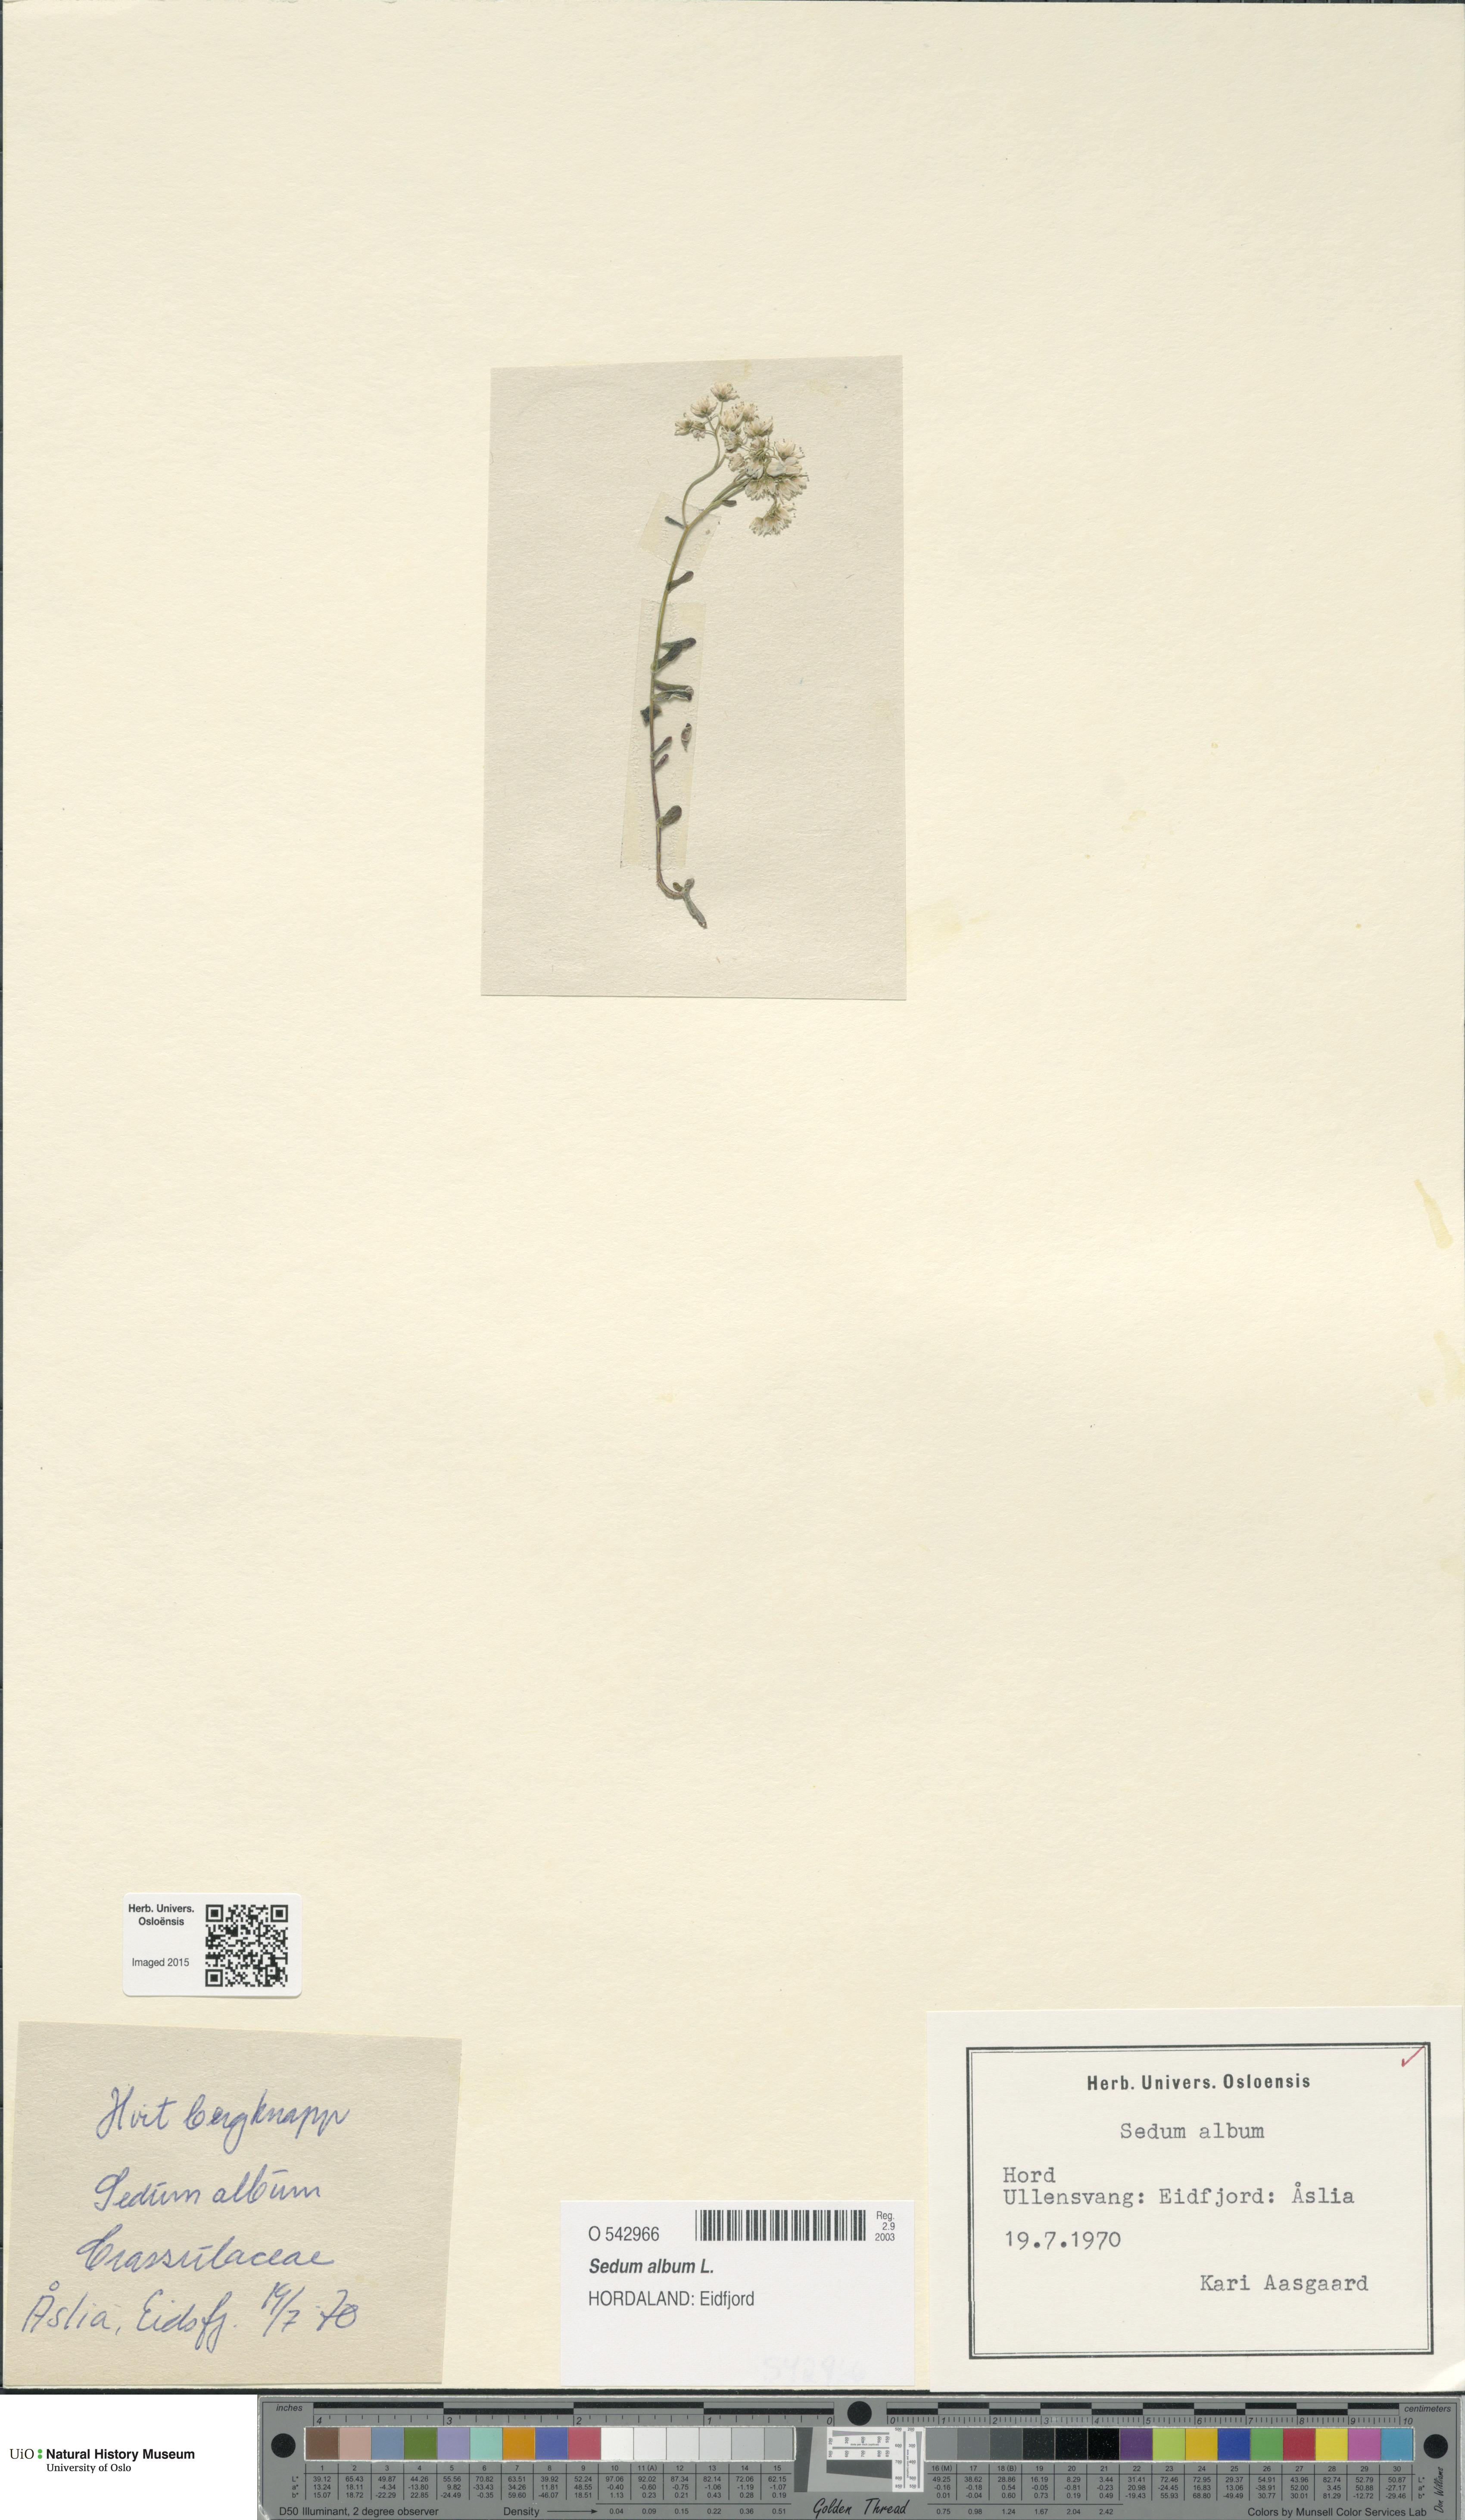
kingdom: Plantae
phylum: Tracheophyta
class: Magnoliopsida
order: Saxifragales
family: Crassulaceae
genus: Sedum
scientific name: Sedum album
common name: White stonecrop
